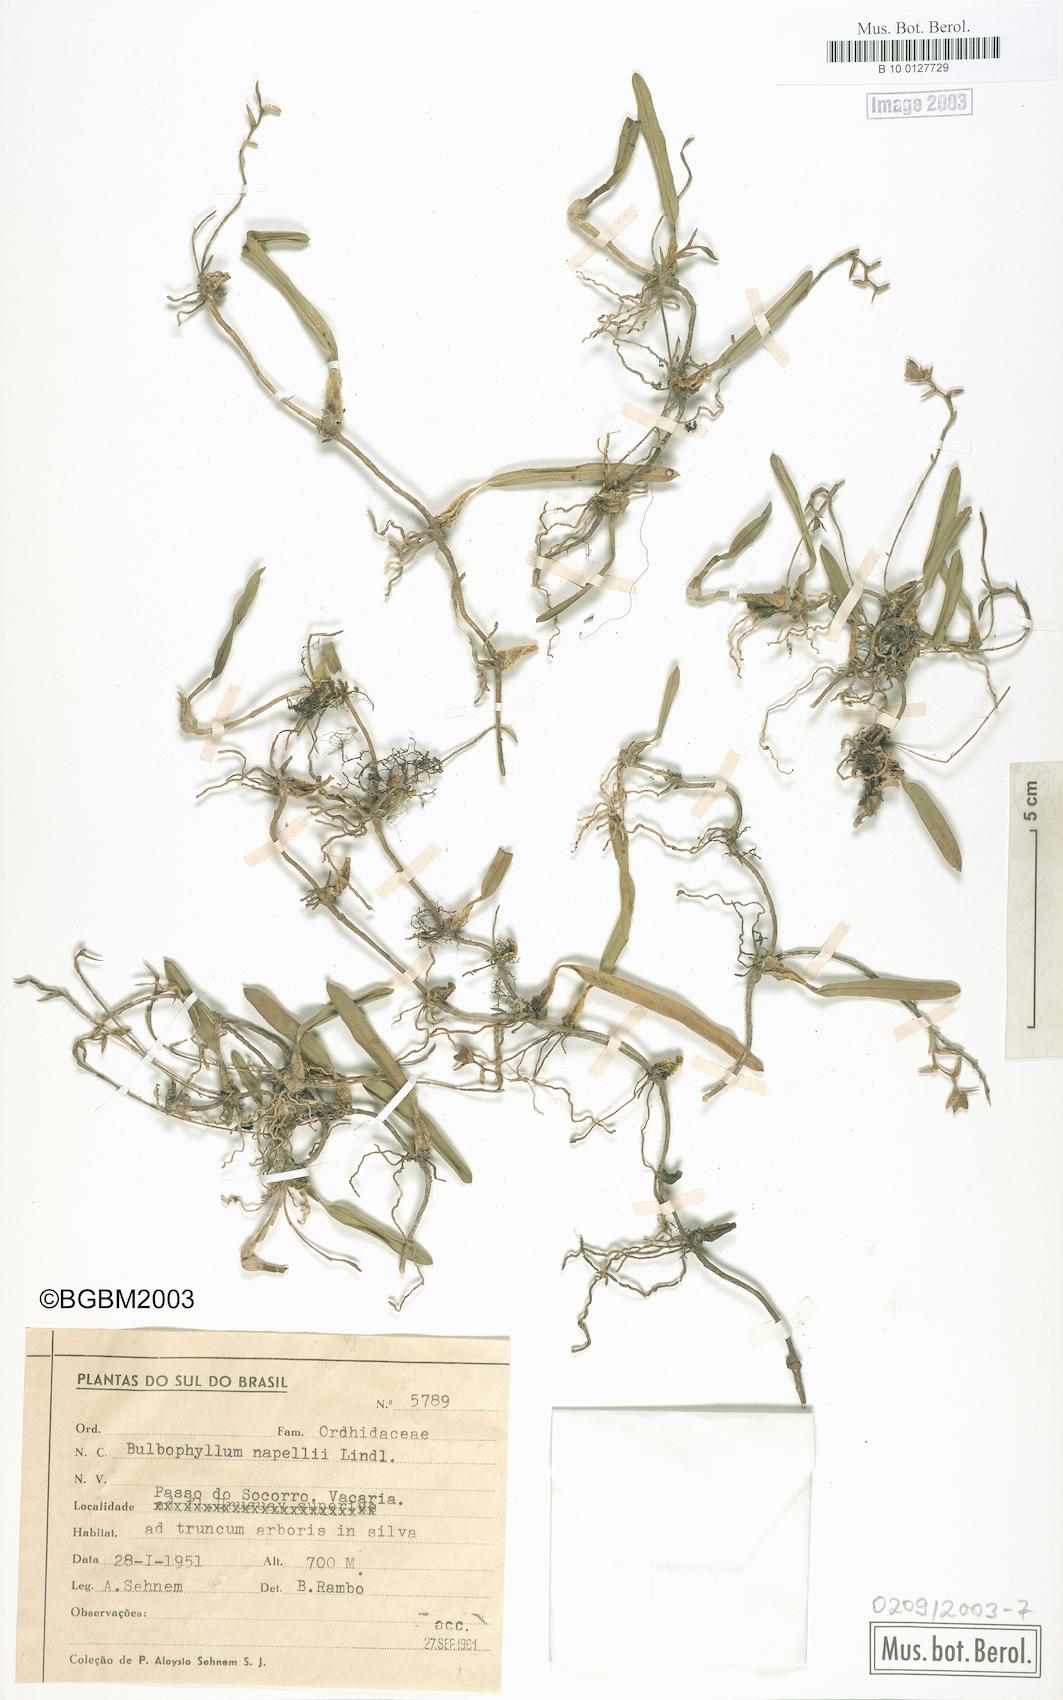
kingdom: Plantae
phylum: Tracheophyta
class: Liliopsida
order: Asparagales
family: Orchidaceae
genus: Bulbophyllum
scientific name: Bulbophyllum napellii
